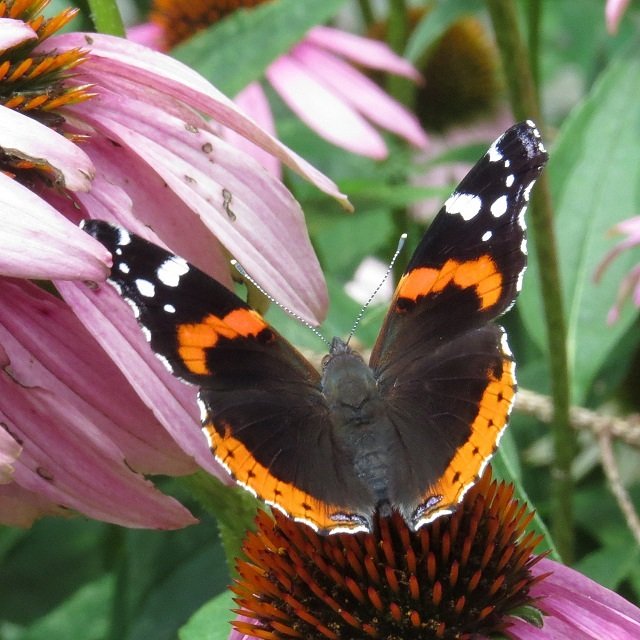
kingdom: Animalia
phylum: Arthropoda
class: Insecta
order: Lepidoptera
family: Nymphalidae
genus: Vanessa
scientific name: Vanessa atalanta
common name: Red Admiral
